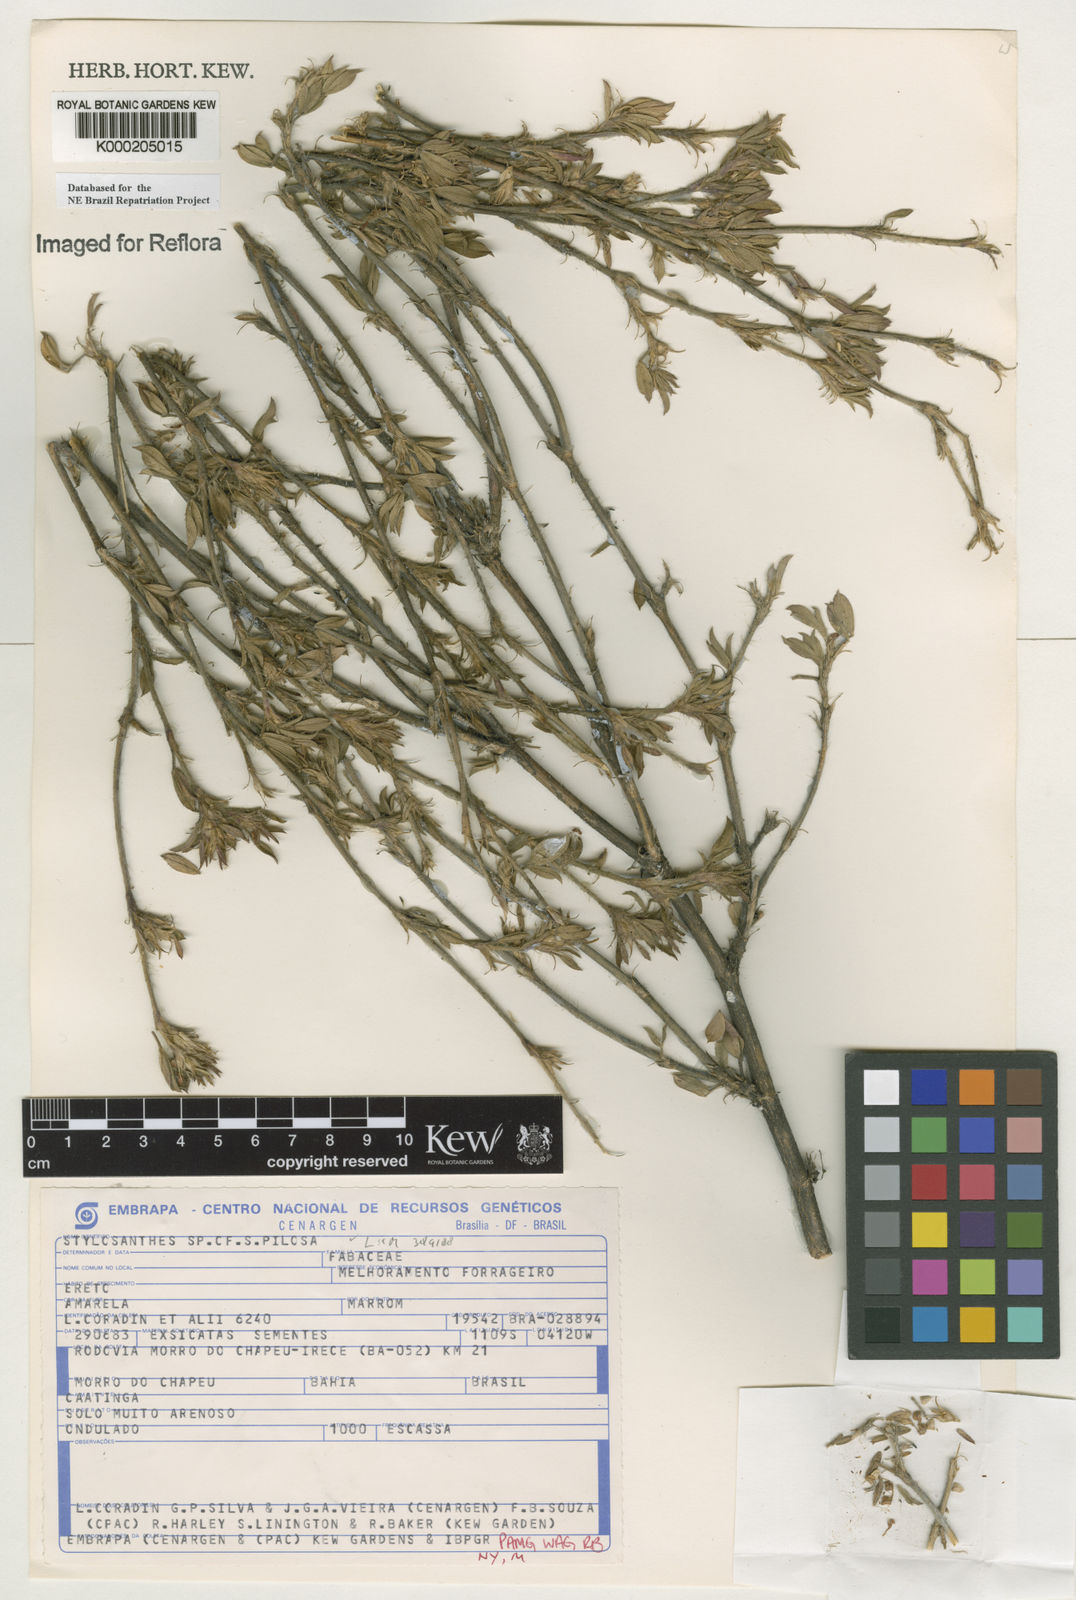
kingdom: Plantae
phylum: Tracheophyta
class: Magnoliopsida
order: Fabales
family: Fabaceae
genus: Stylosanthes
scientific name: Stylosanthes viscosa
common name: Viscid pencil-flower
